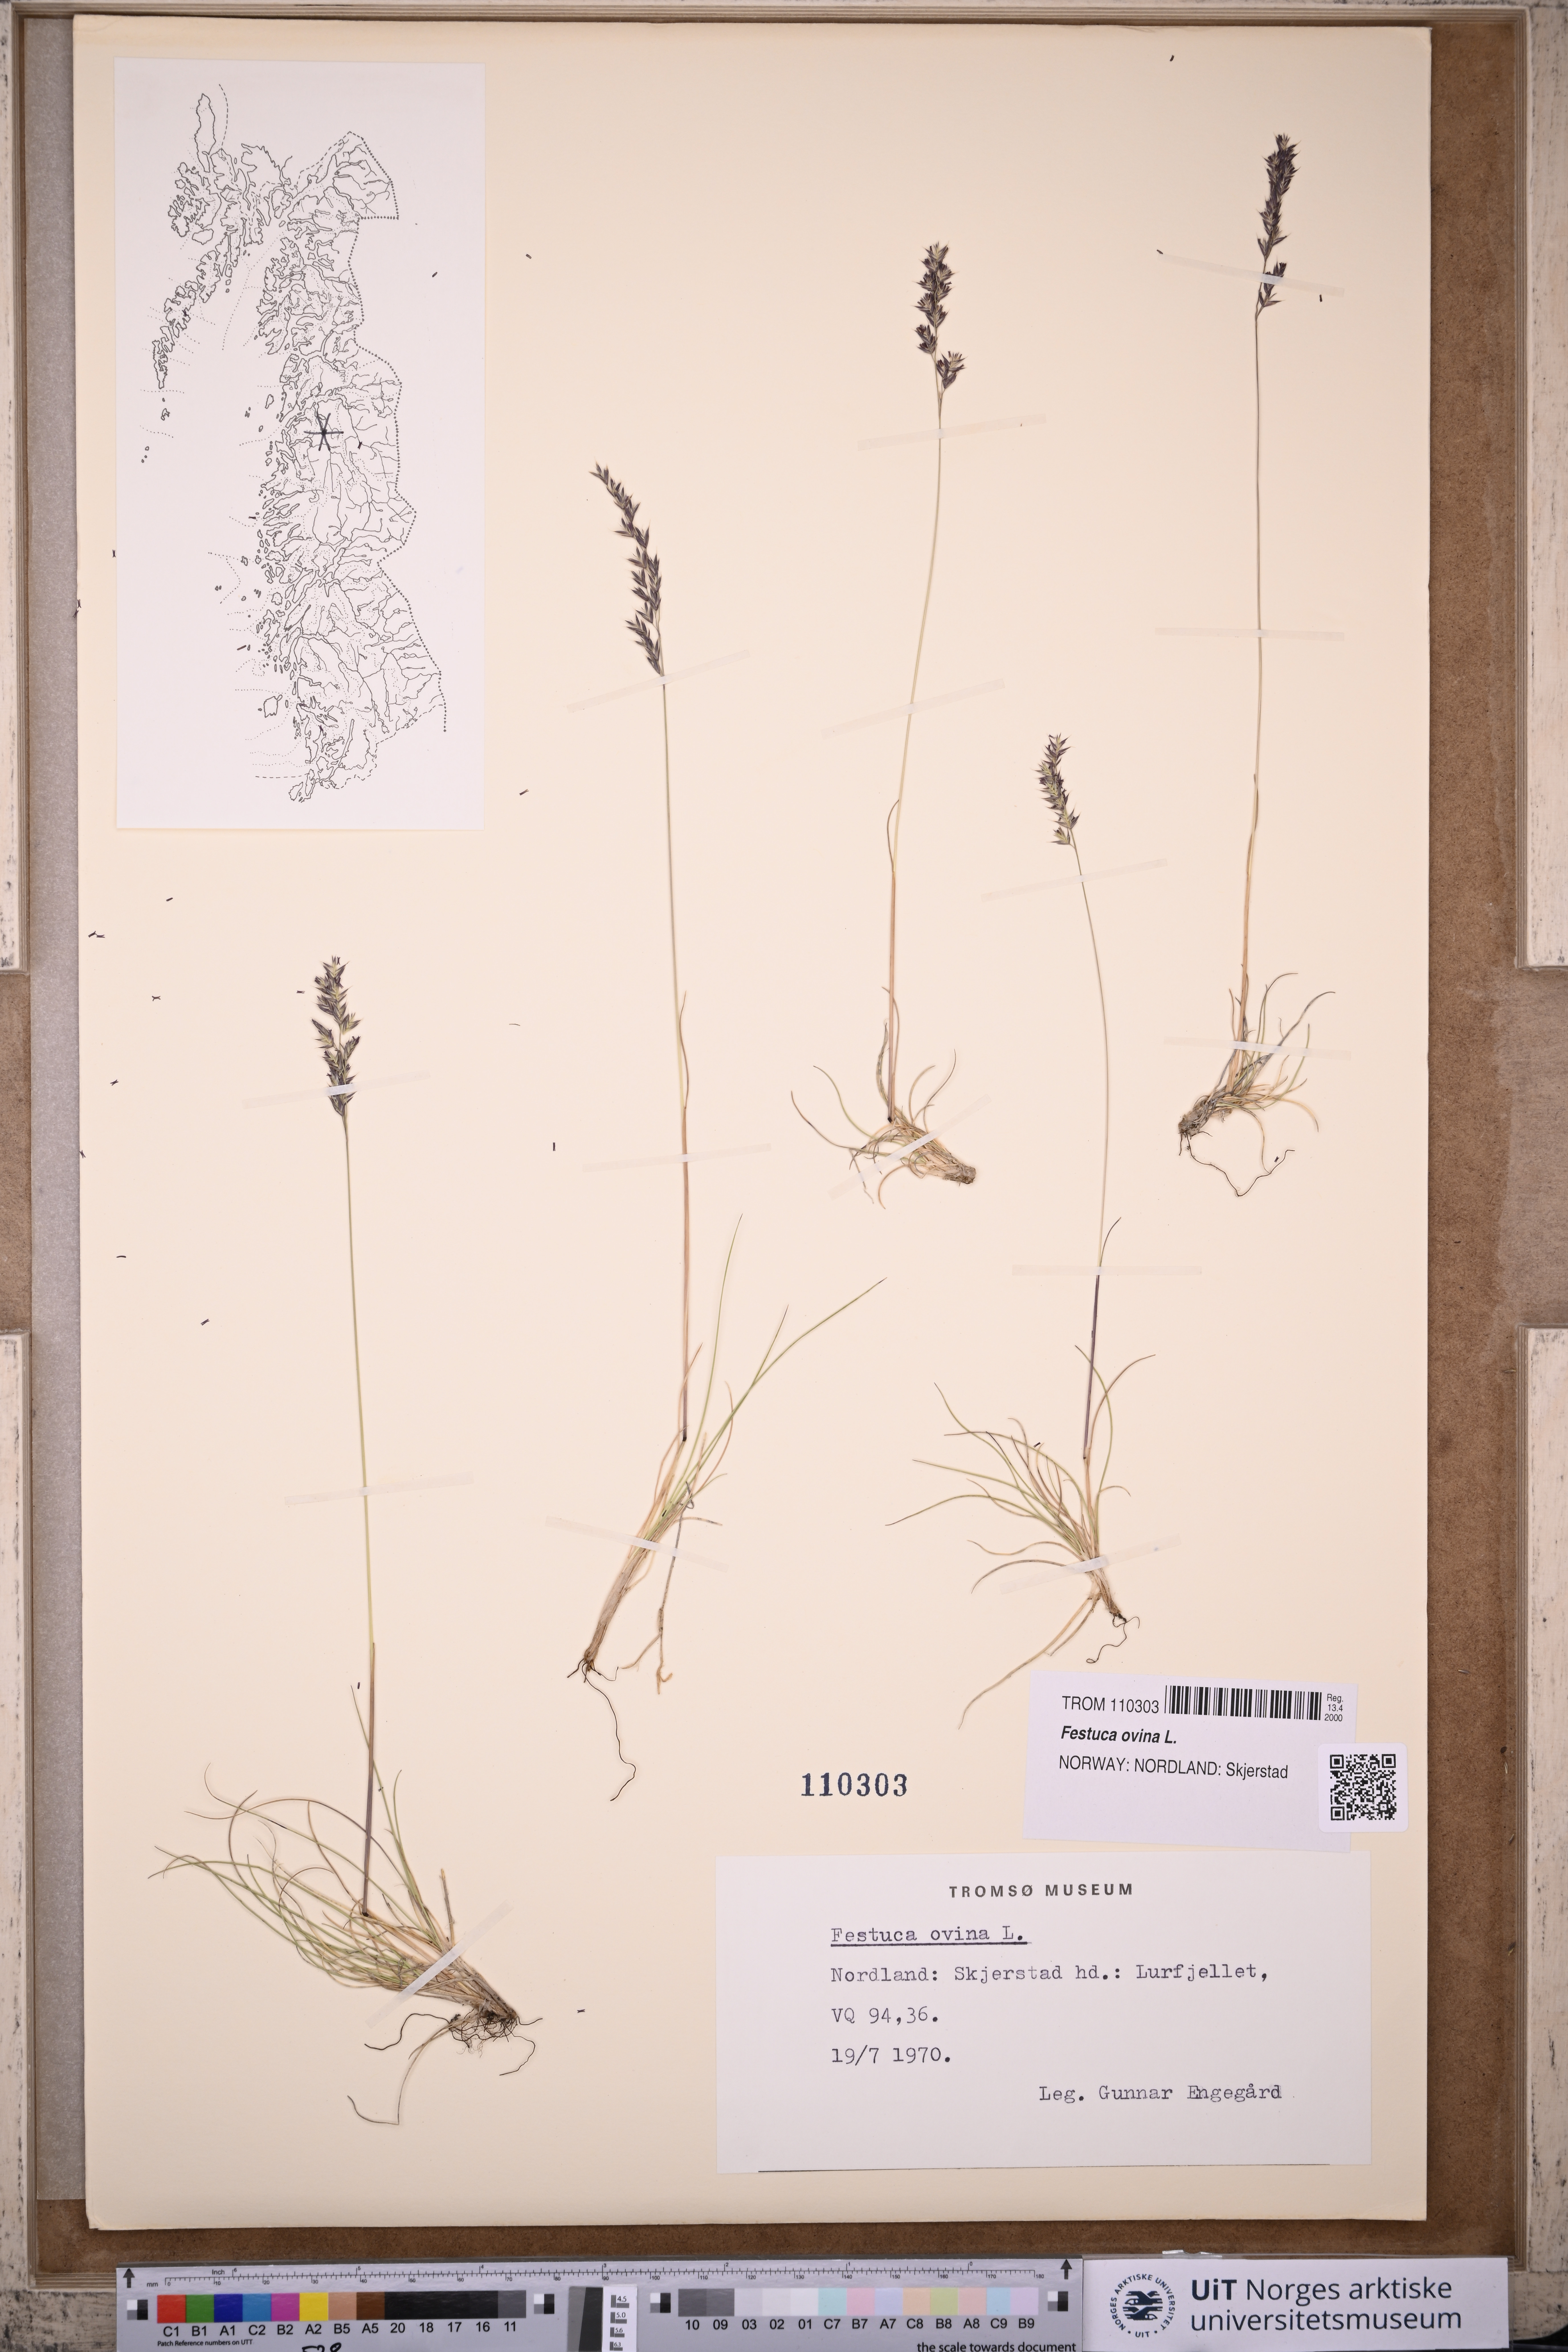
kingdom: Plantae
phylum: Tracheophyta
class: Liliopsida
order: Poales
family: Poaceae
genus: Festuca
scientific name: Festuca ovina
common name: Sheep fescue
